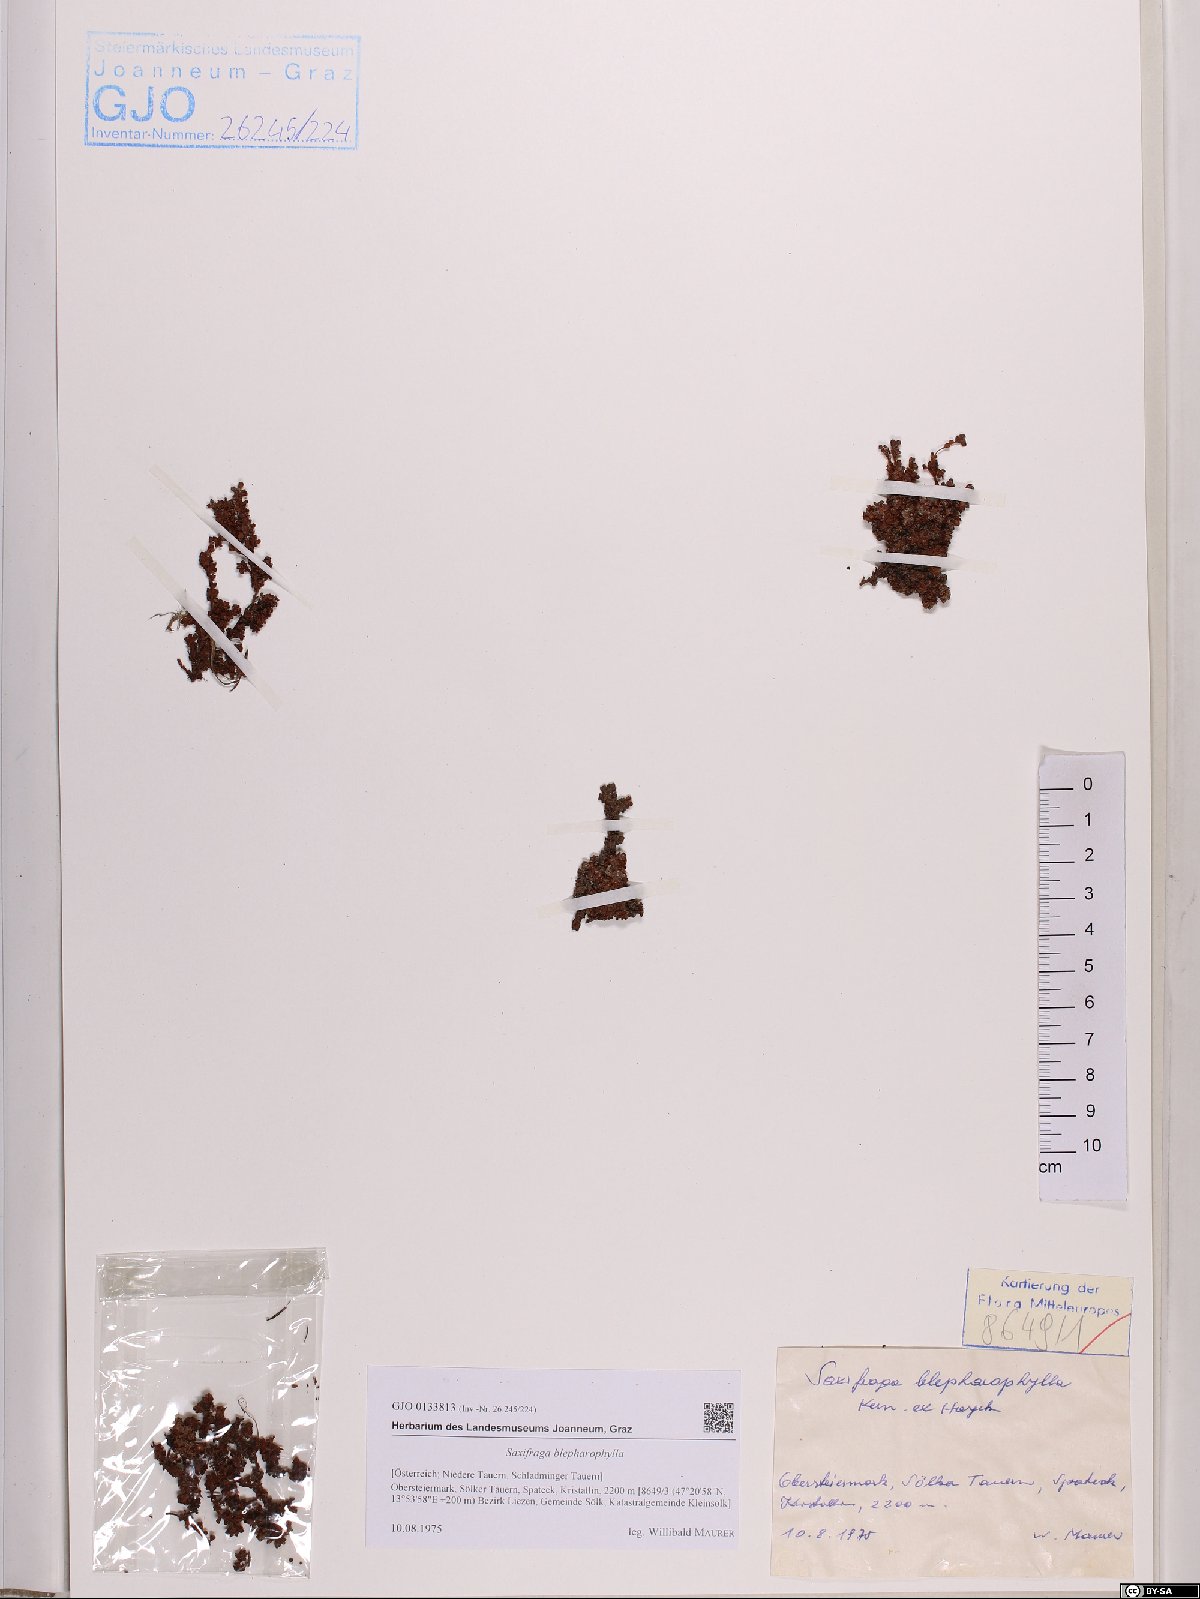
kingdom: Plantae
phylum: Tracheophyta
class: Magnoliopsida
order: Saxifragales
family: Saxifragaceae
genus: Saxifraga
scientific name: Saxifraga oppositifolia
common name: Purple saxifrage
